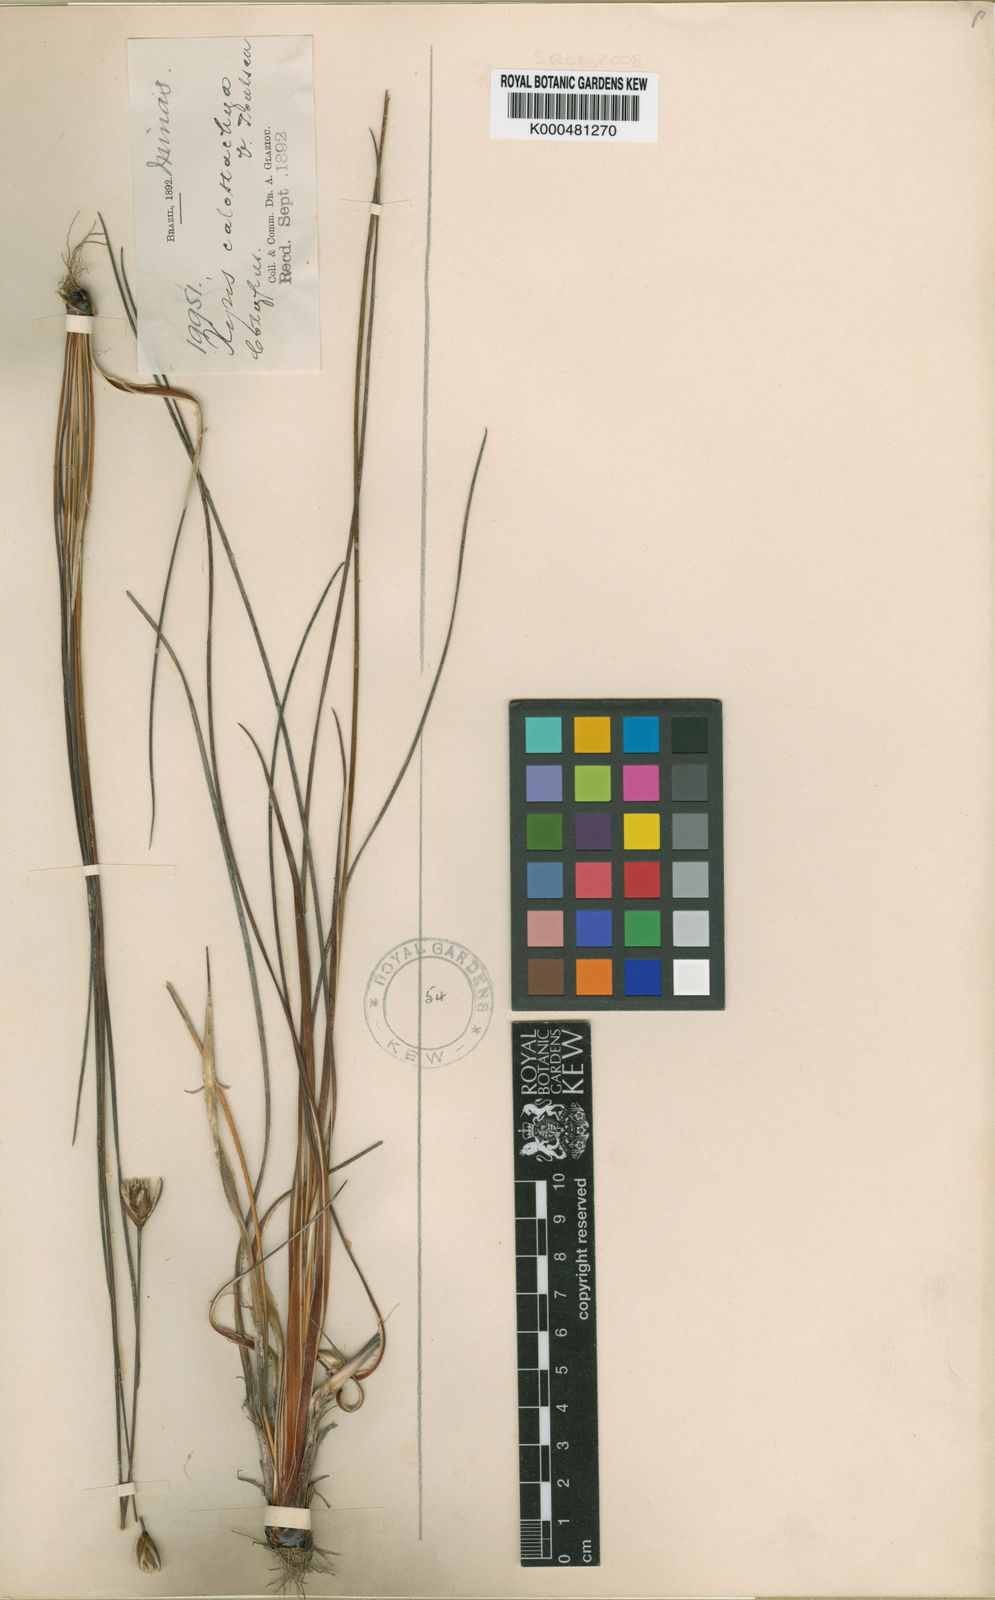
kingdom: Plantae
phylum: Tracheophyta
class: Liliopsida
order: Poales
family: Xyridaceae
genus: Xyris
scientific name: Xyris calostachys
